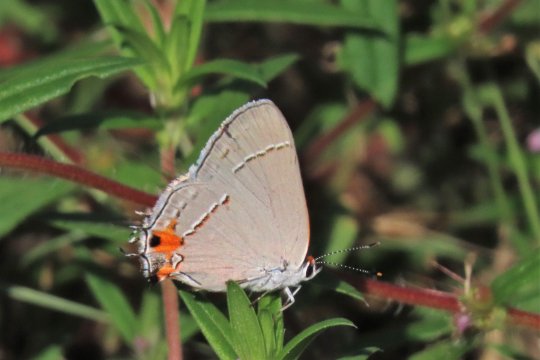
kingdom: Animalia
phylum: Arthropoda
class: Insecta
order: Lepidoptera
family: Lycaenidae
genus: Strymon
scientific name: Strymon melinus
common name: Gray Hairstreak
